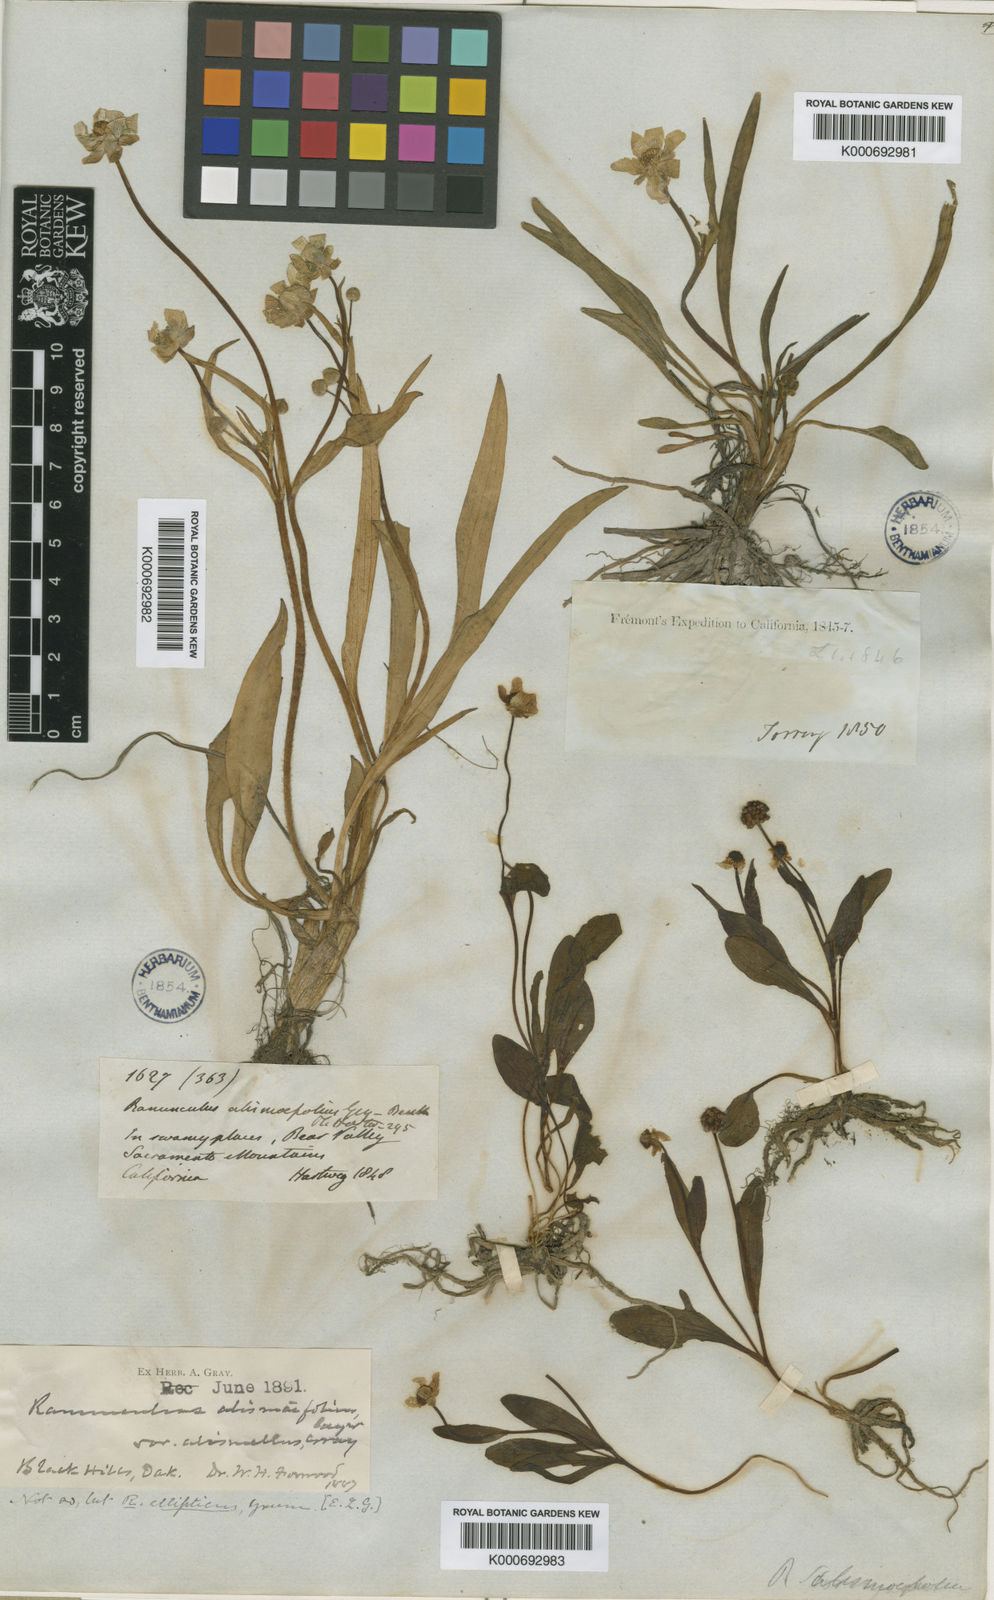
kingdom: Plantae
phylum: Tracheophyta
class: Magnoliopsida
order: Ranunculales
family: Ranunculaceae
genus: Ranunculus
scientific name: Ranunculus alismifolius
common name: Plantain-leaved buttercup
